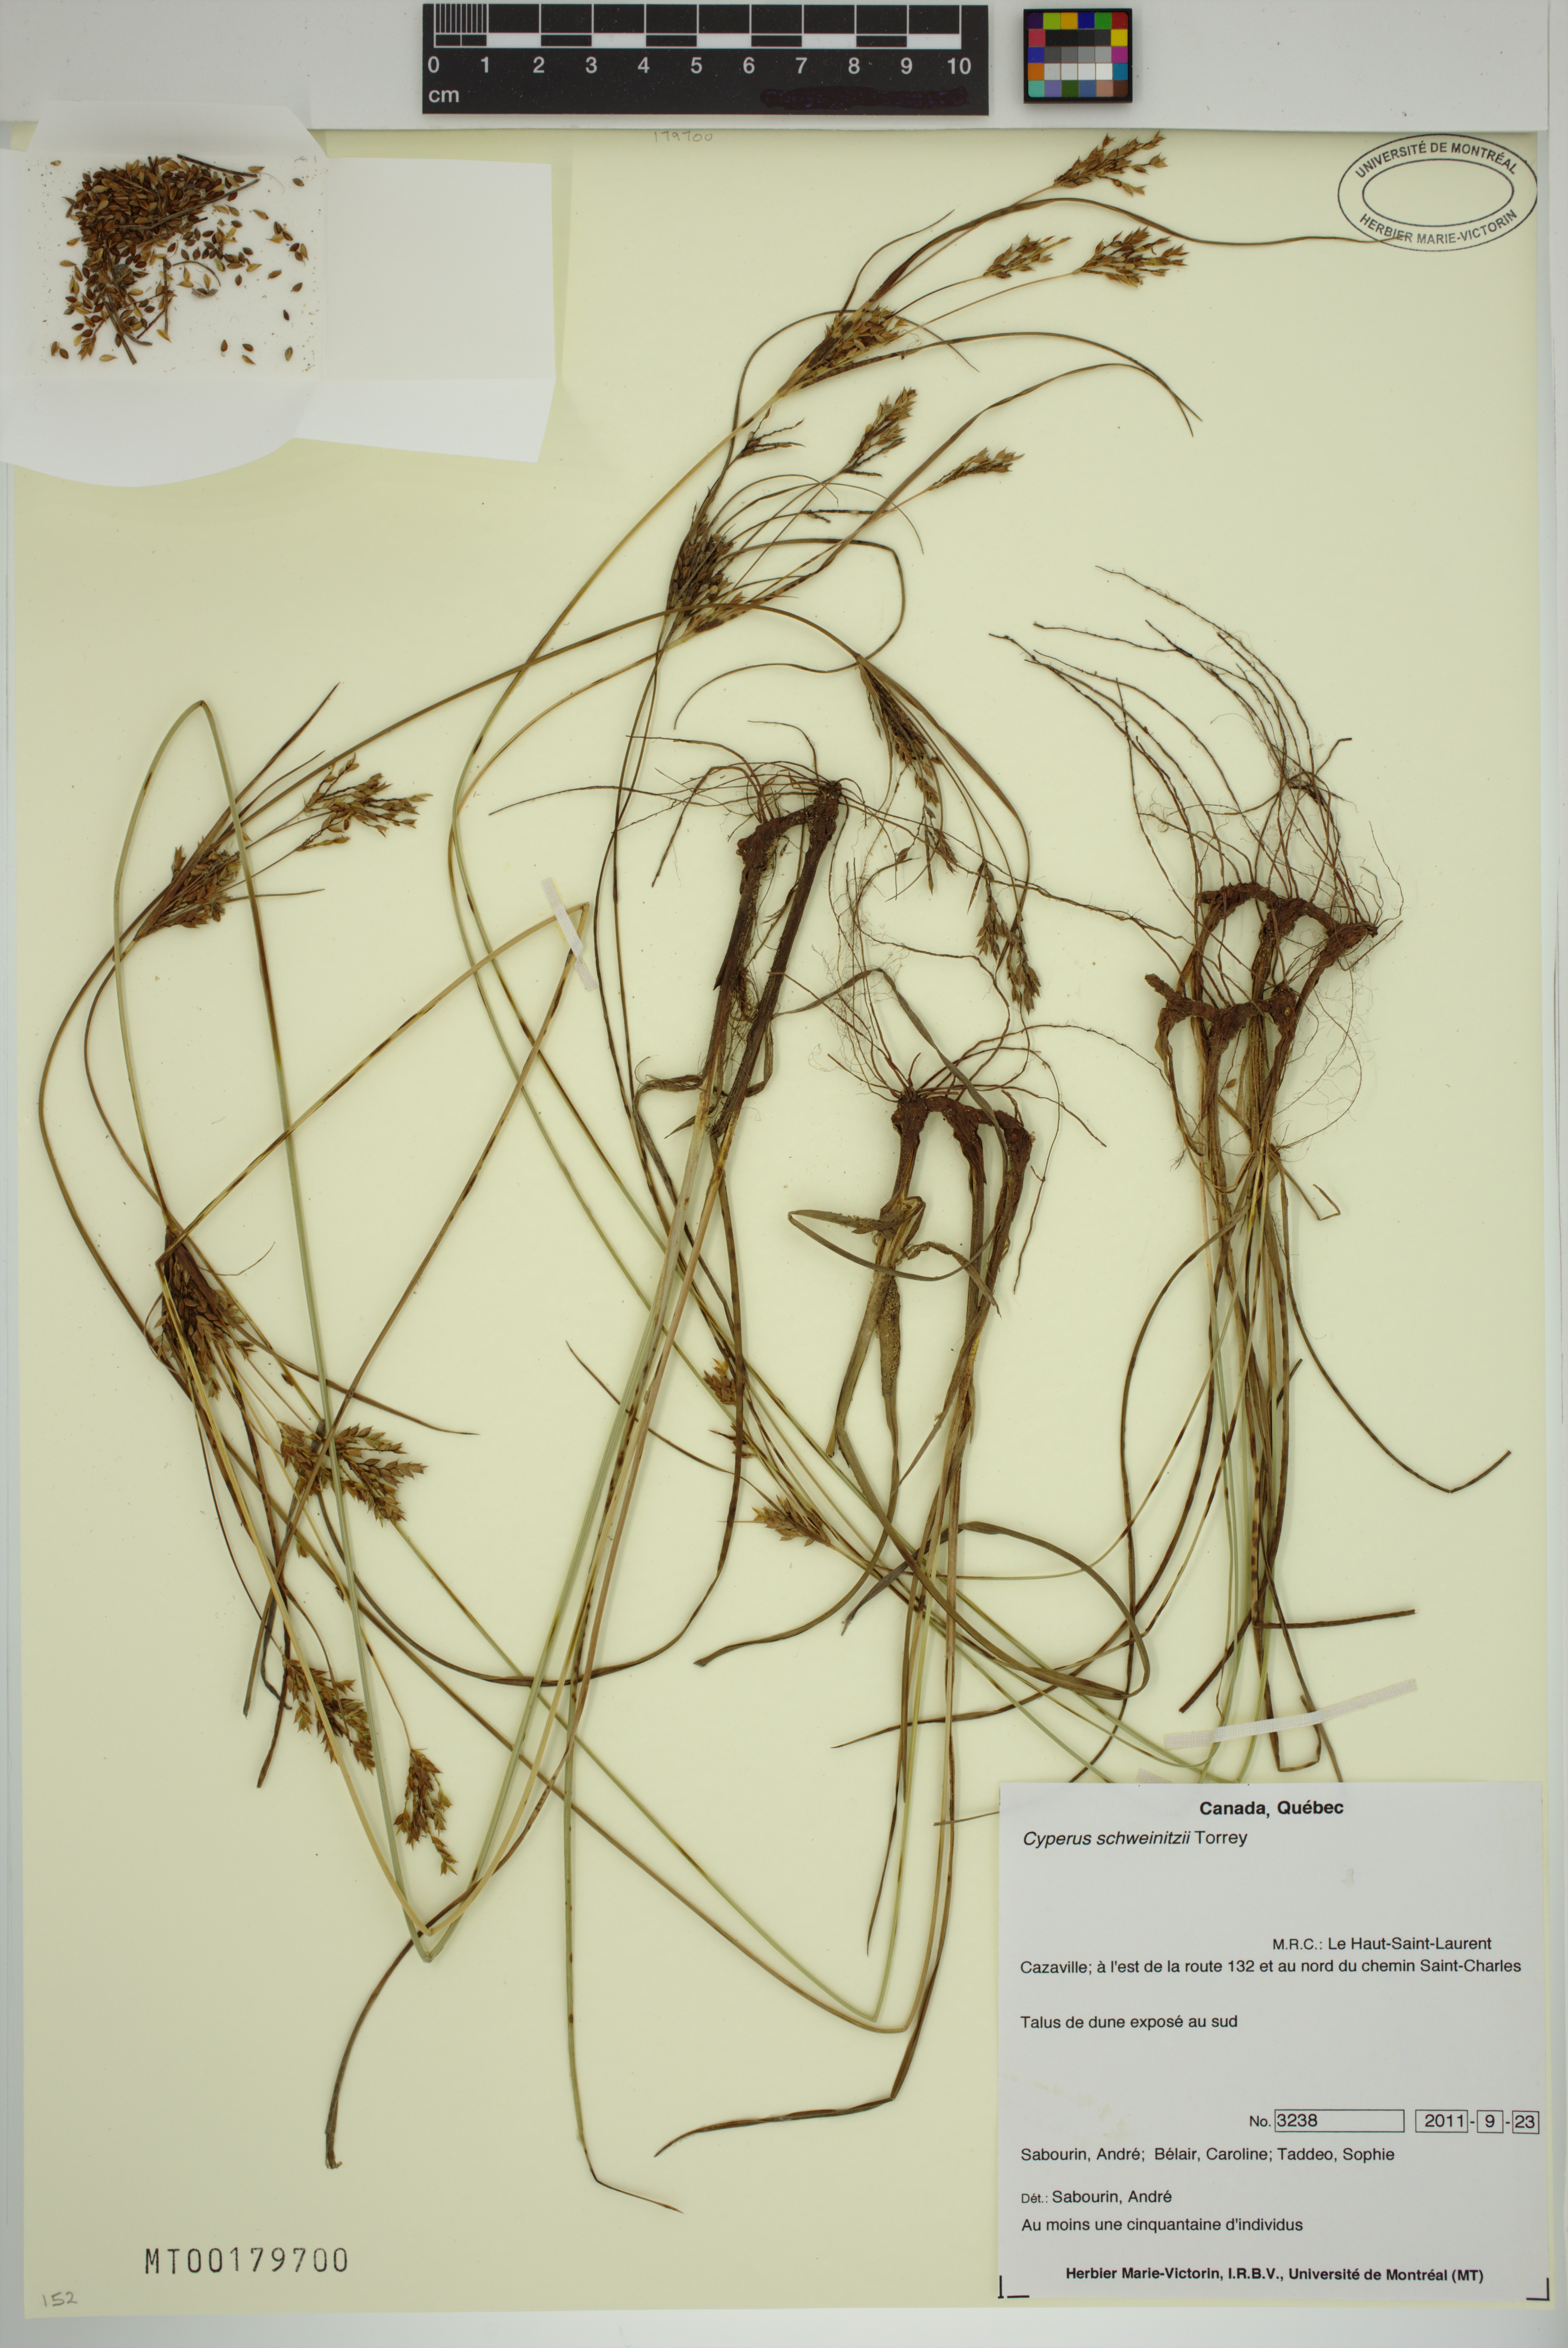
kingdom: Plantae
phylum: Tracheophyta
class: Liliopsida
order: Poales
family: Cyperaceae
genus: Cyperus
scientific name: Cyperus schweinitzii
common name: Schweinitz's cyperus
